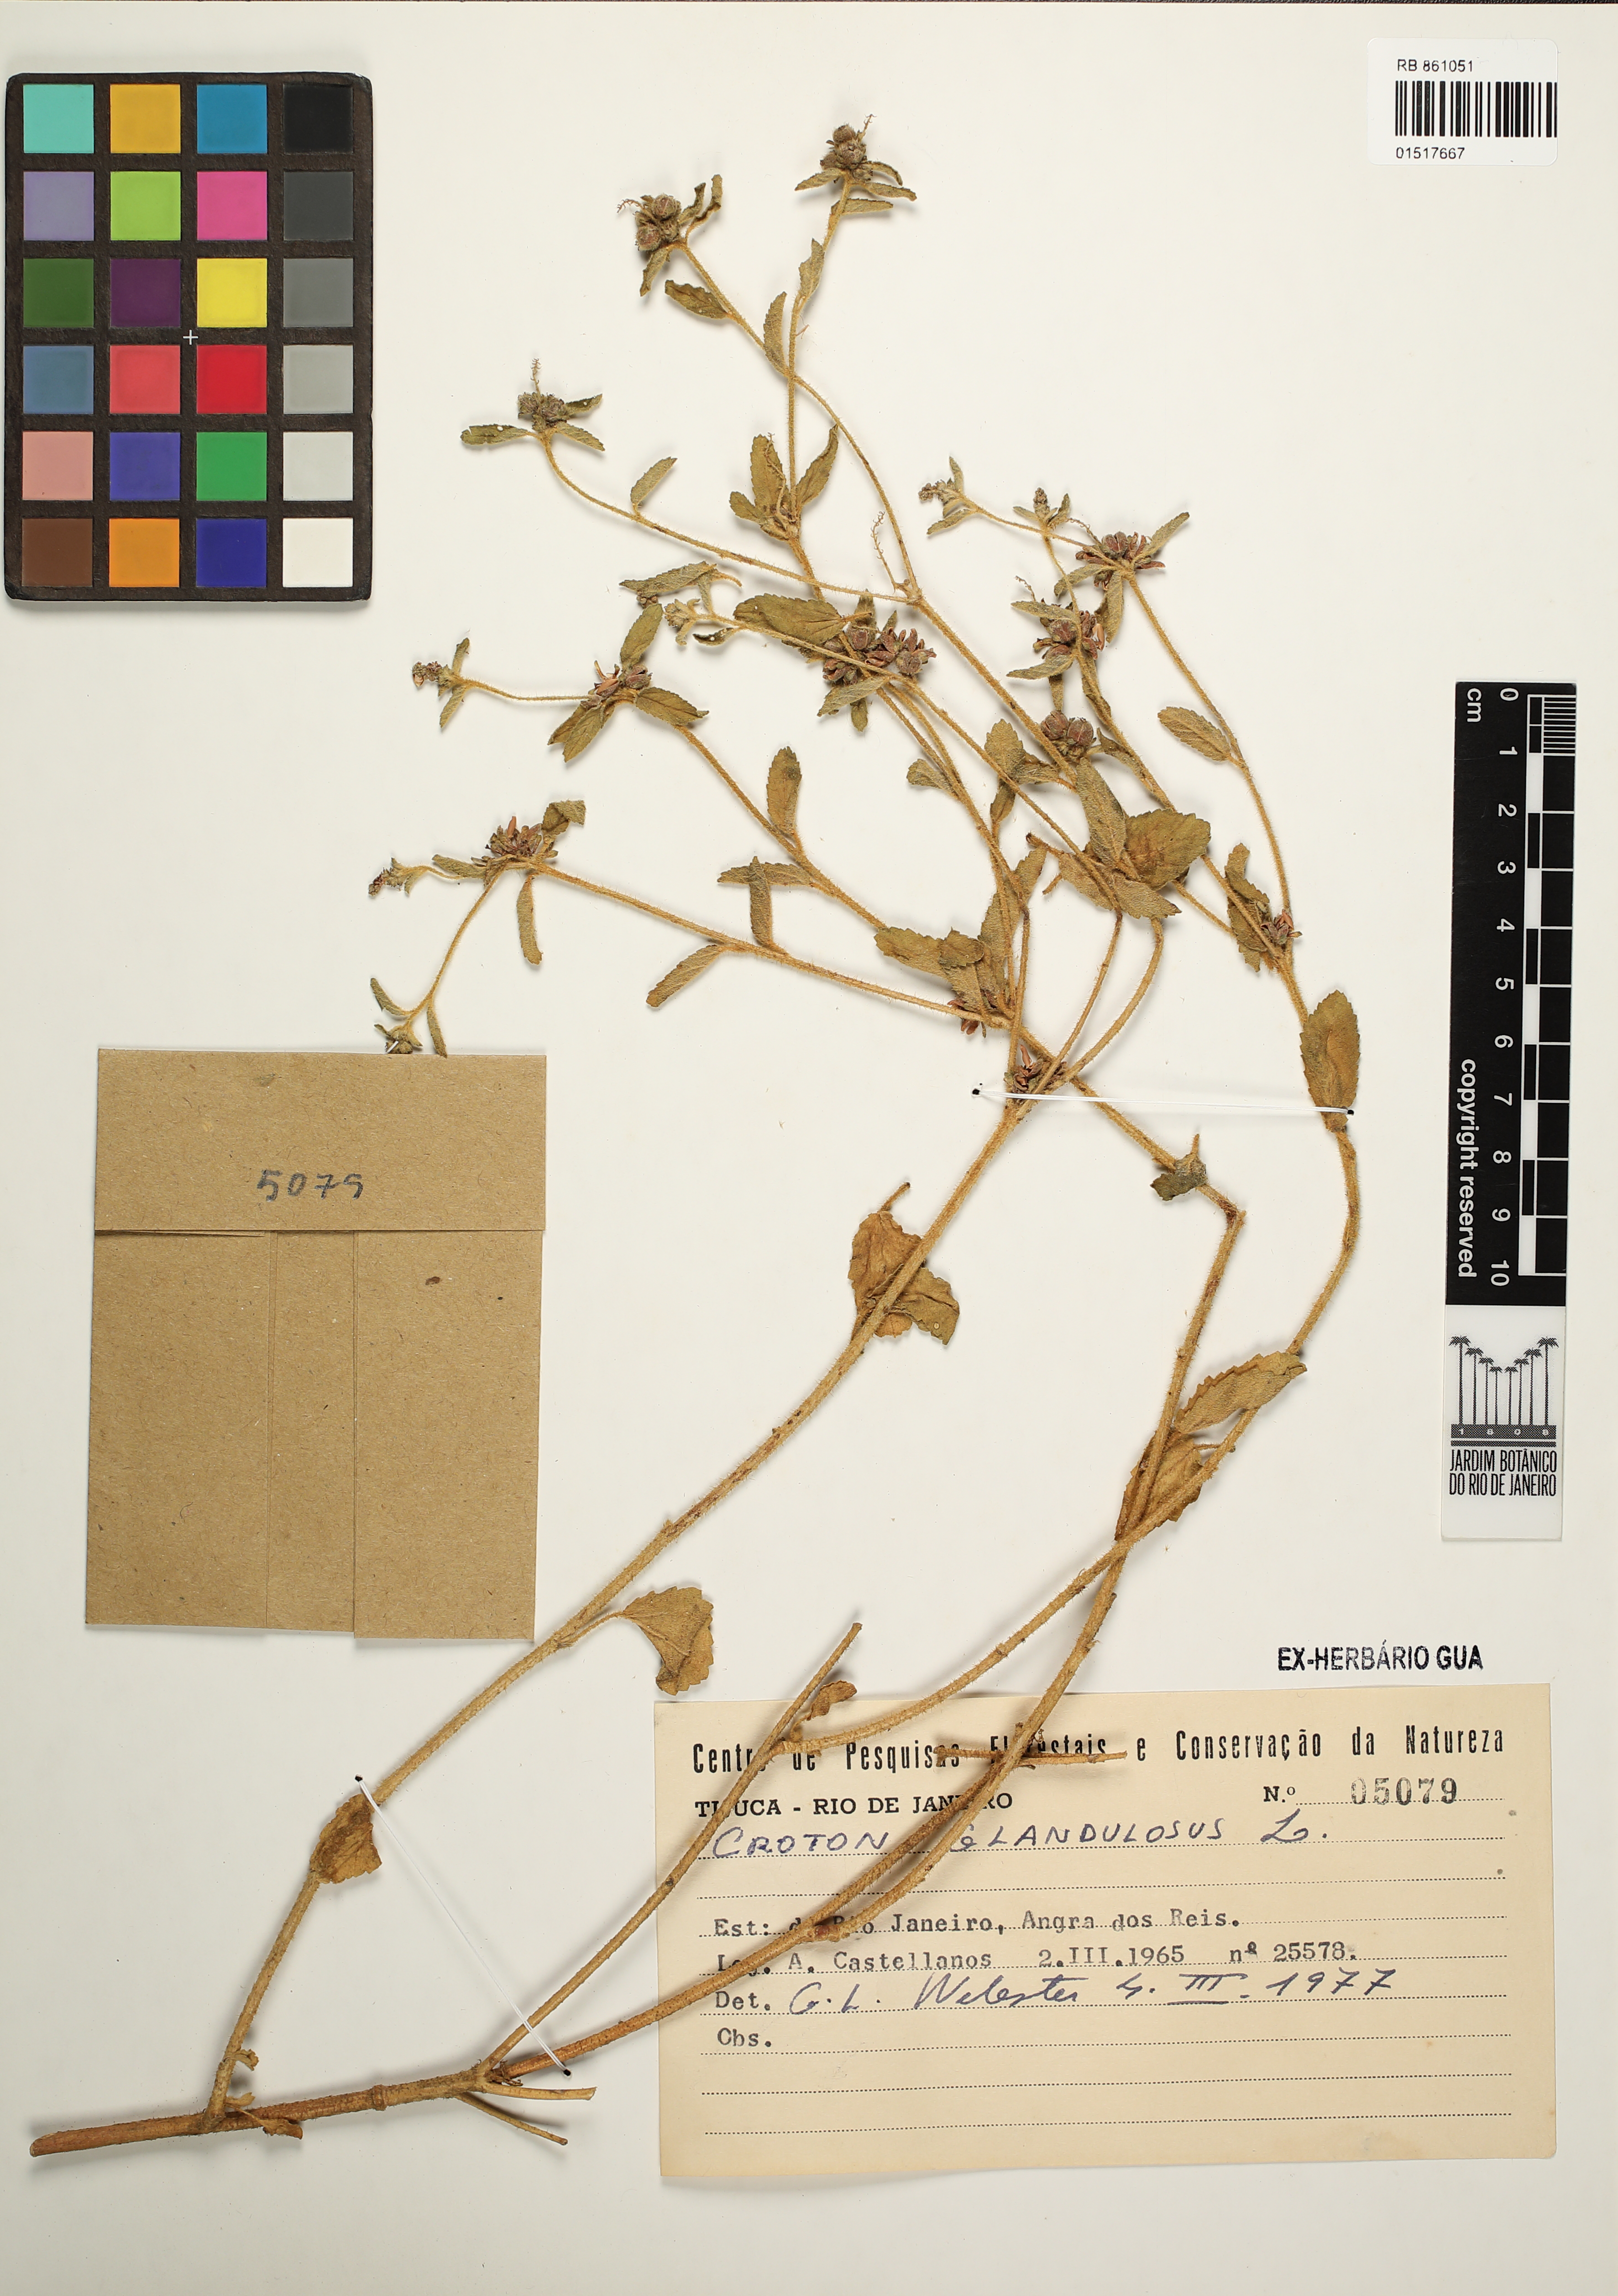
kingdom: Plantae
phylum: Tracheophyta
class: Magnoliopsida
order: Malpighiales
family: Euphorbiaceae
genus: Croton
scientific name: Croton glandulosus
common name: Tropic croton
